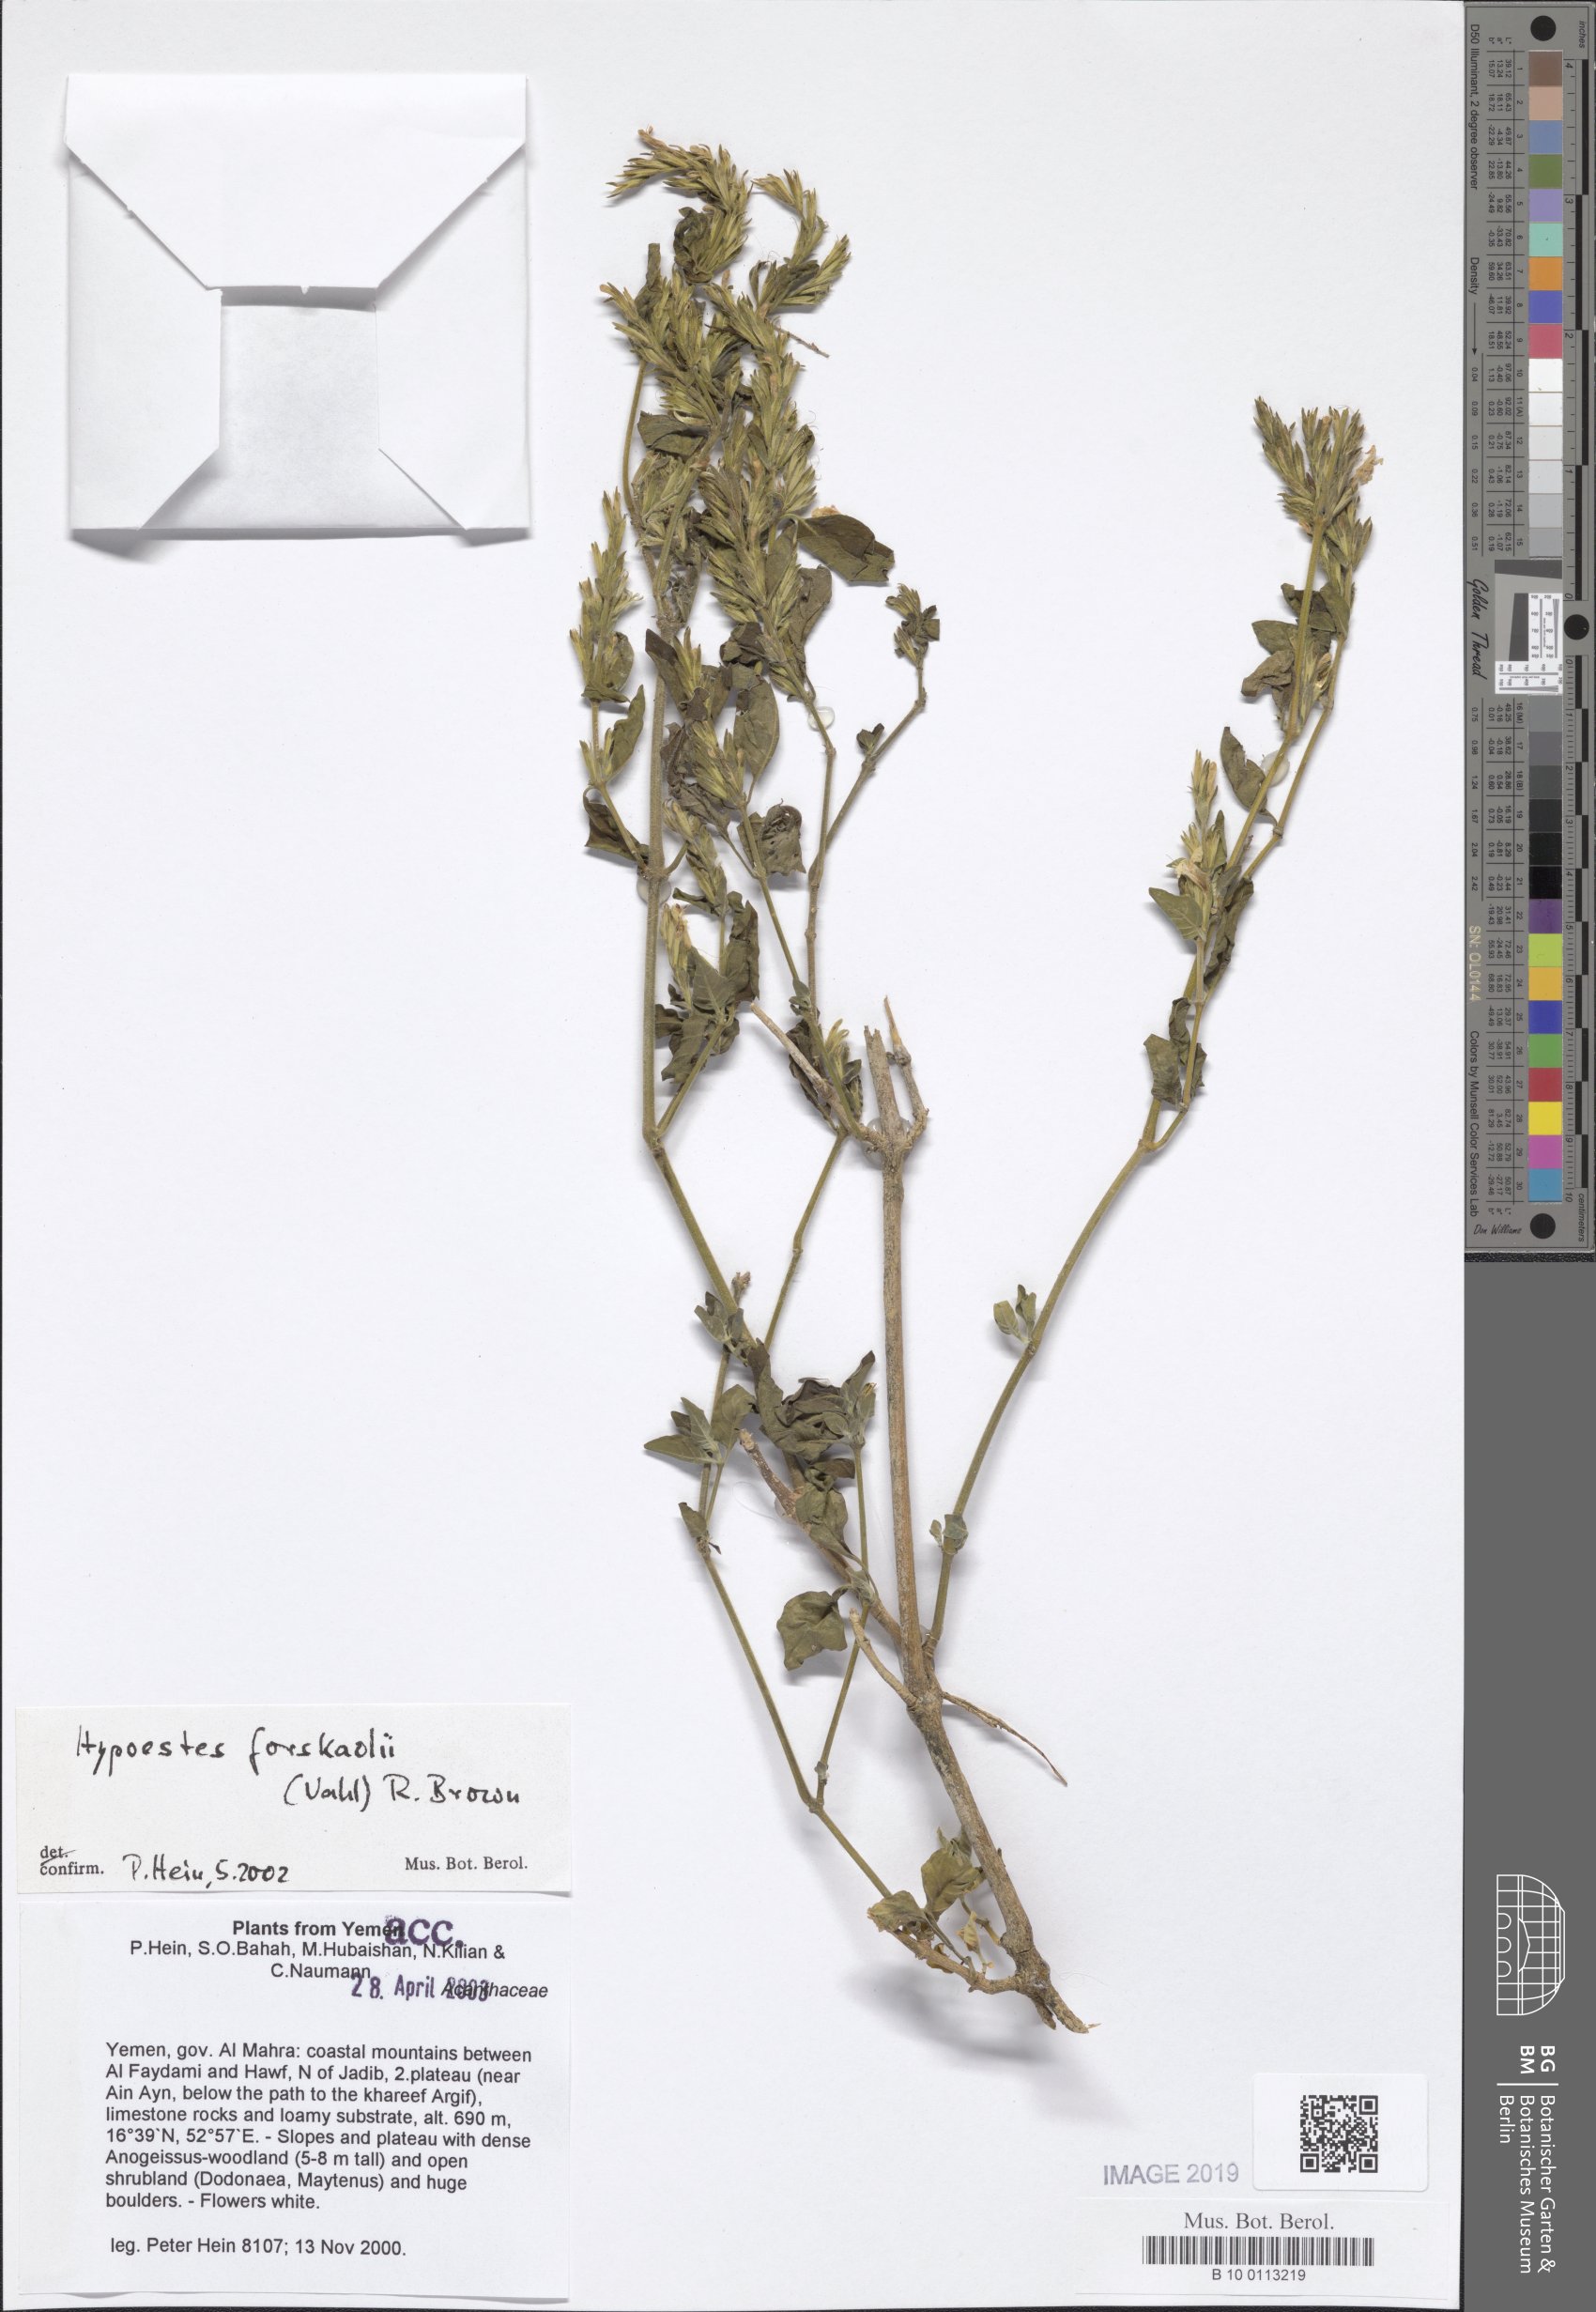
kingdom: Plantae
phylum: Tracheophyta
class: Magnoliopsida
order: Lamiales
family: Acanthaceae
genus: Hypoestes
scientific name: Hypoestes forskaolii
